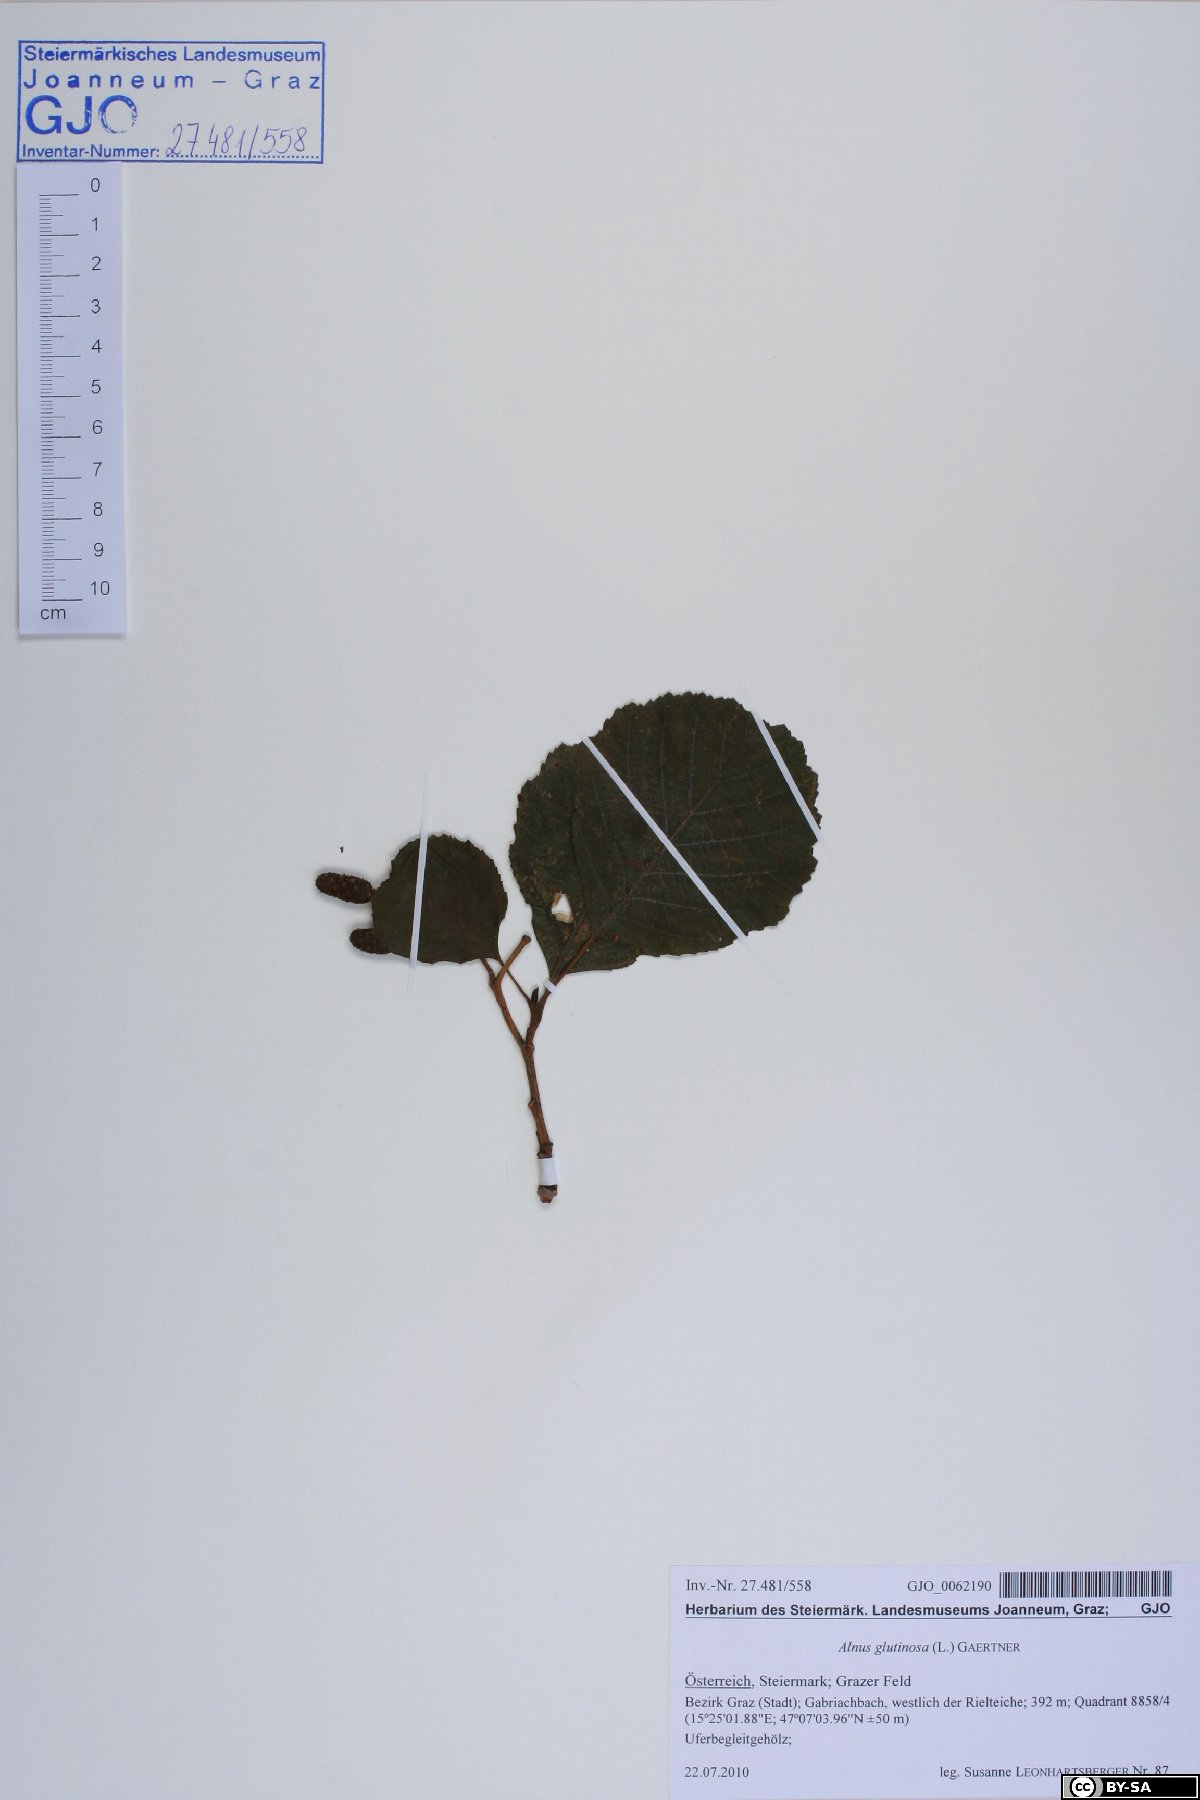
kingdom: Plantae
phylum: Tracheophyta
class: Magnoliopsida
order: Fagales
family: Betulaceae
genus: Alnus
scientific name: Alnus glutinosa
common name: Black alder
